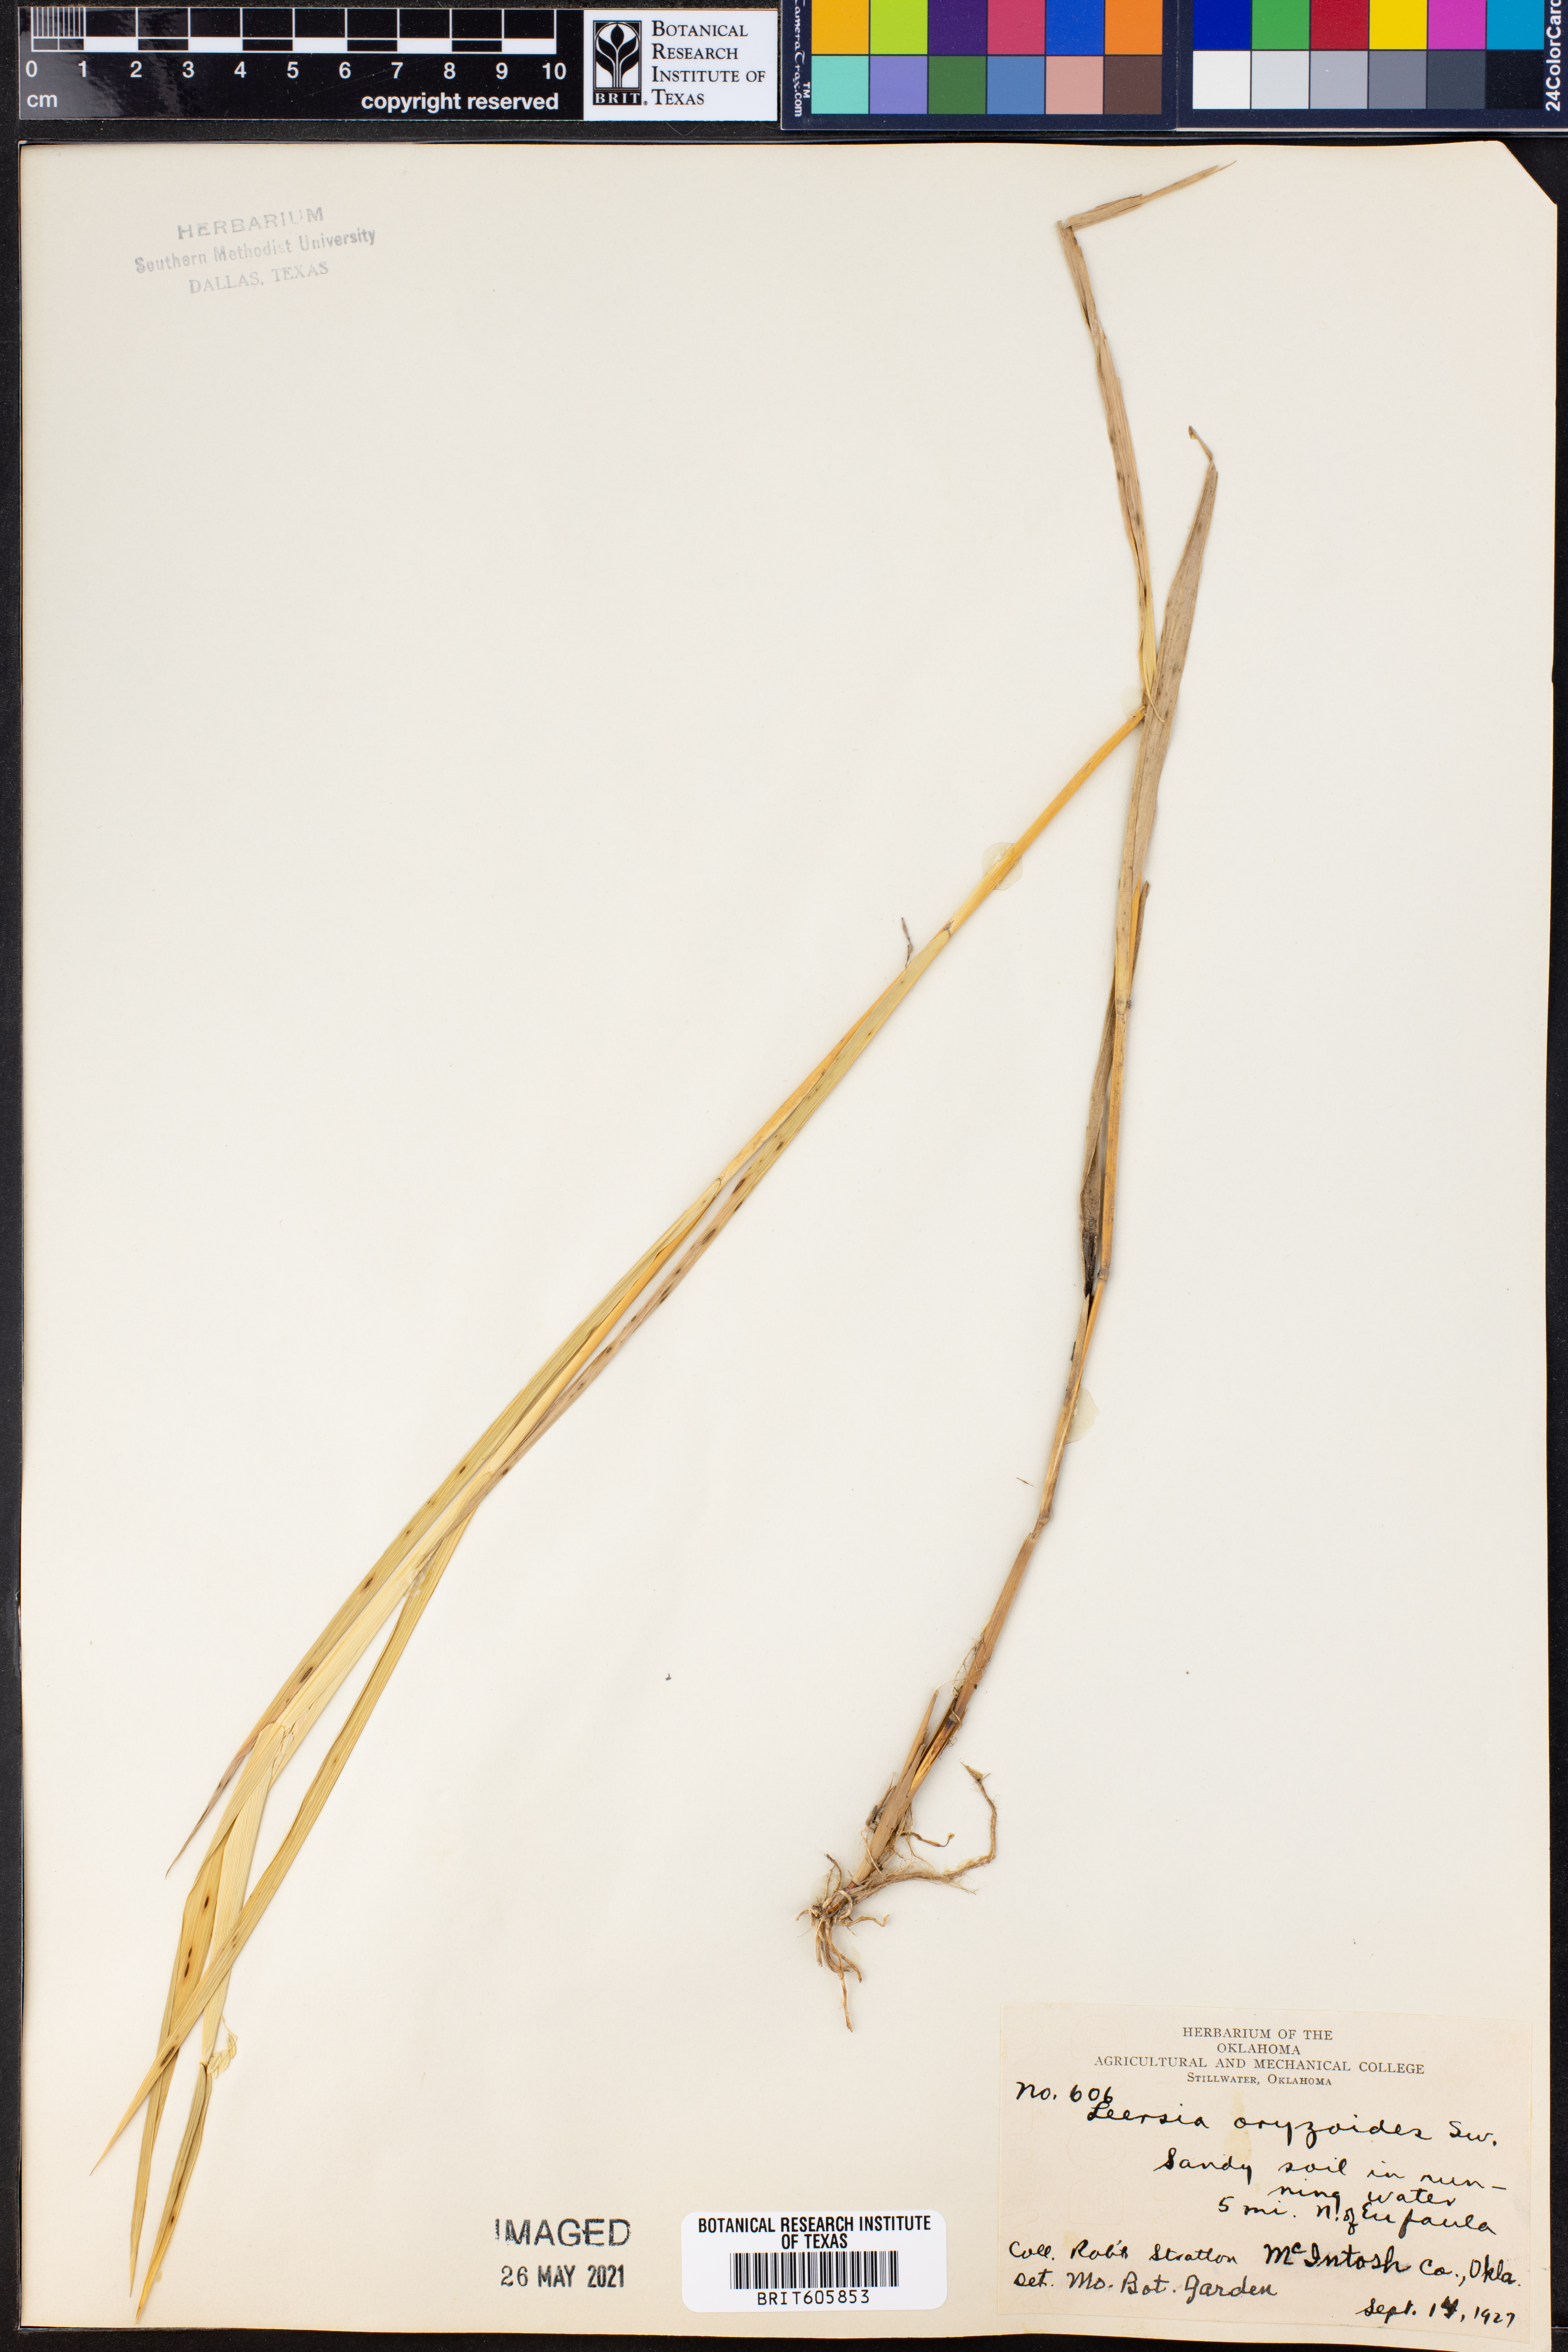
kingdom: Plantae
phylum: Tracheophyta
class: Liliopsida
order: Poales
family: Poaceae
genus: Leersia
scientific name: Leersia oryzoides
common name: Cut-grass
